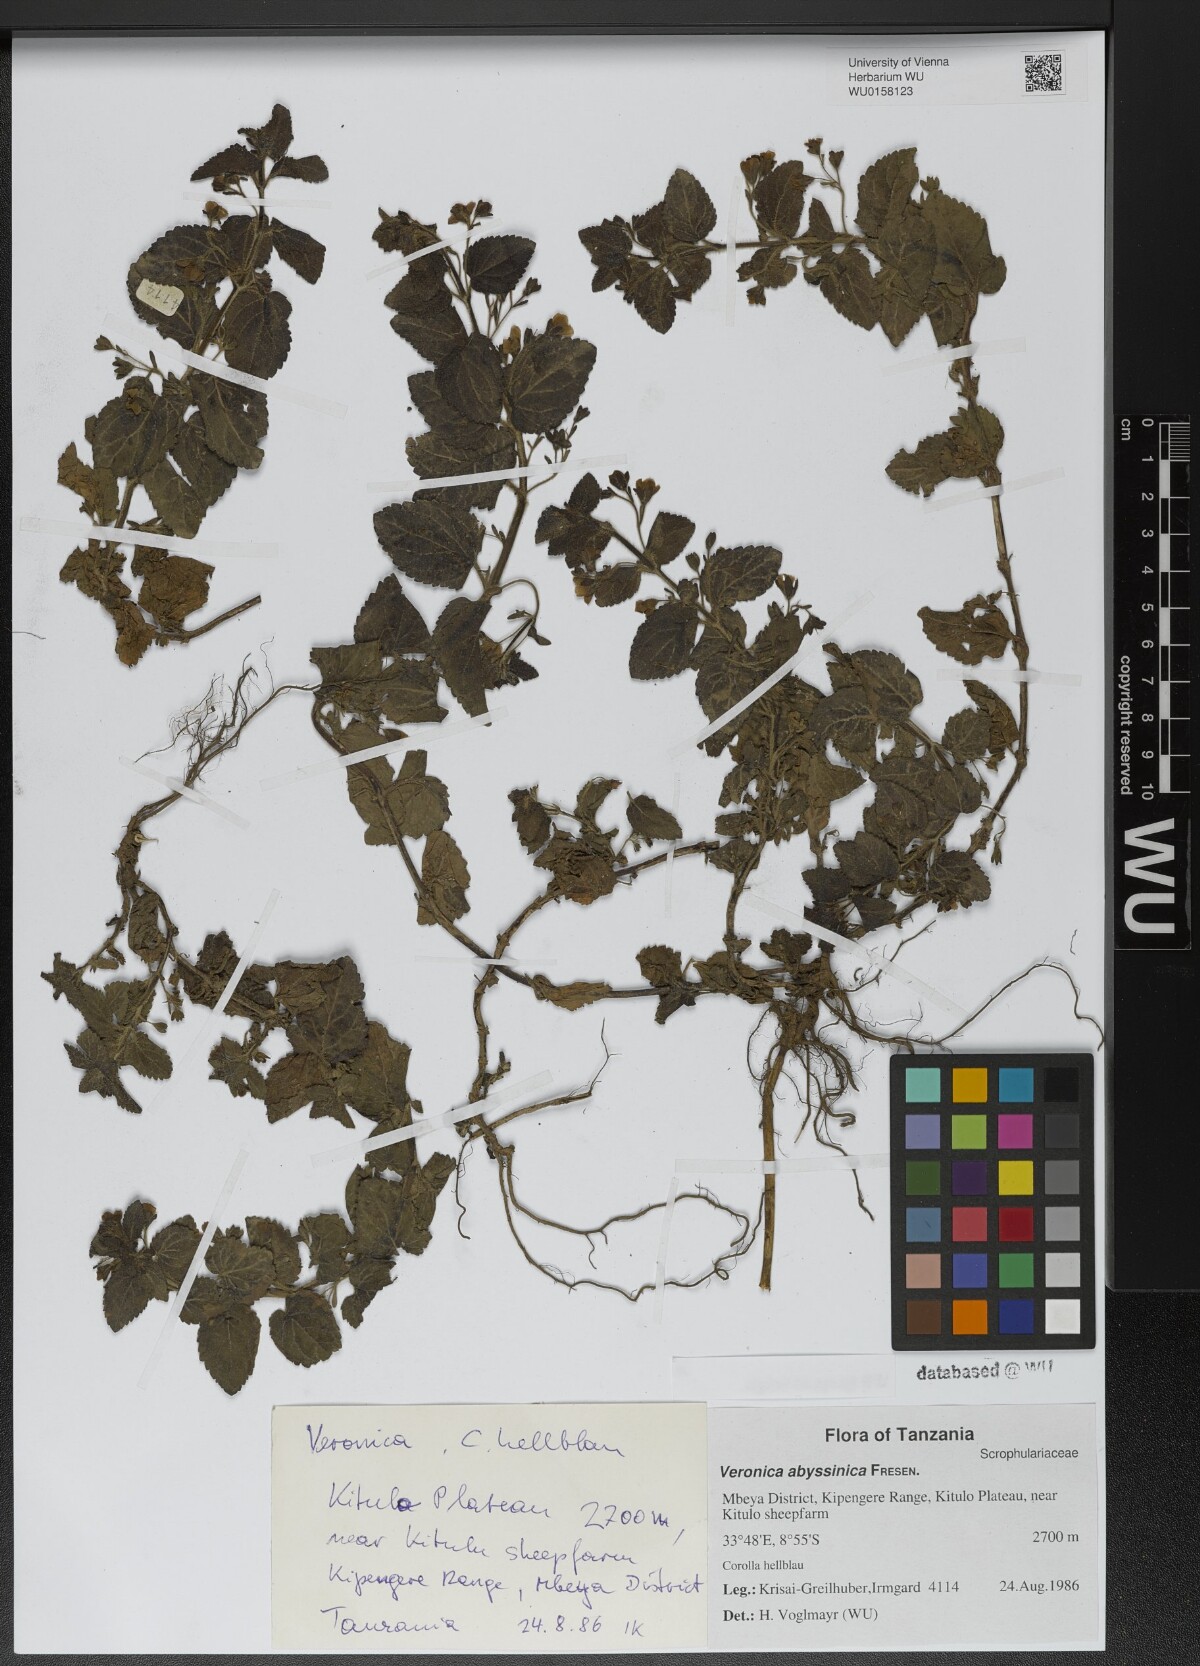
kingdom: Plantae
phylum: Tracheophyta
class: Magnoliopsida
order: Lamiales
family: Plantaginaceae
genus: Veronica
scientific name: Veronica abyssinica
